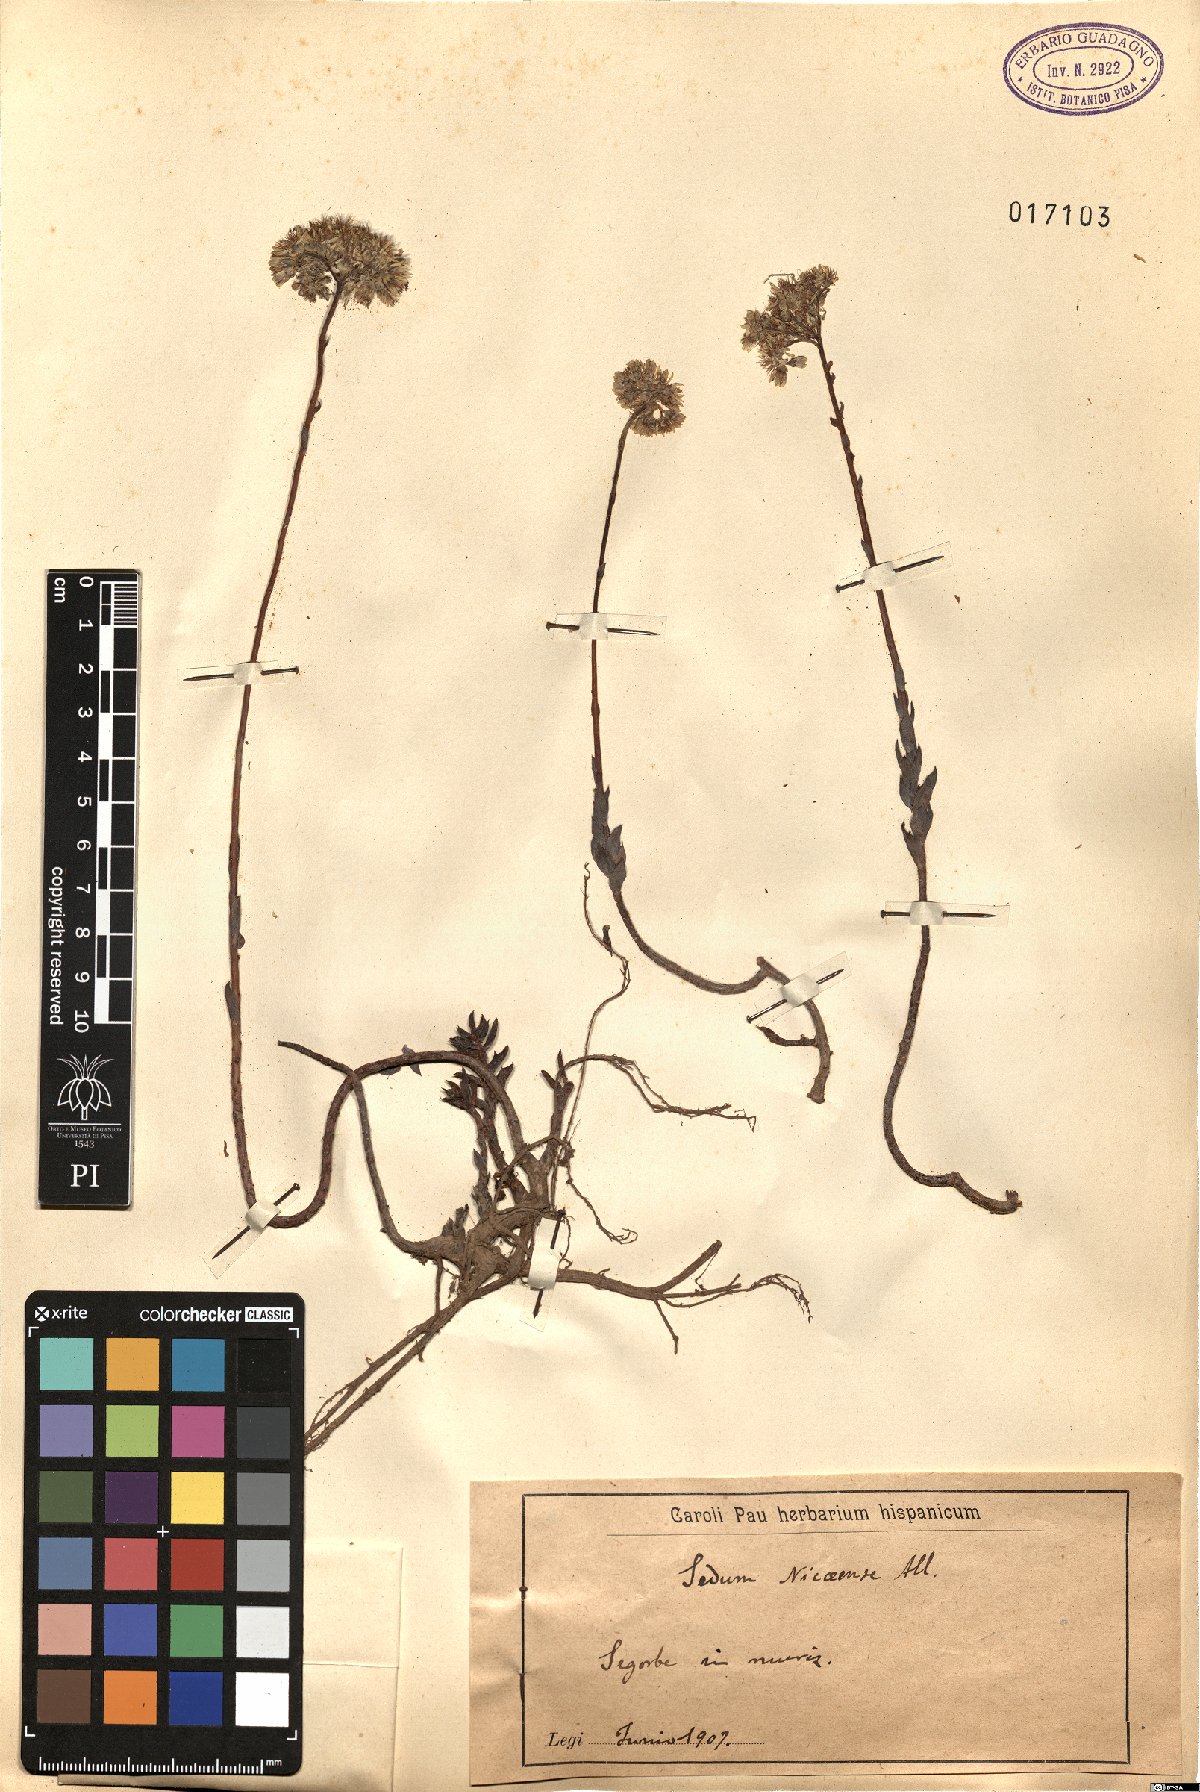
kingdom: Plantae
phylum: Tracheophyta
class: Magnoliopsida
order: Saxifragales
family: Crassulaceae
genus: Petrosedum
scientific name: Petrosedum luteolum
